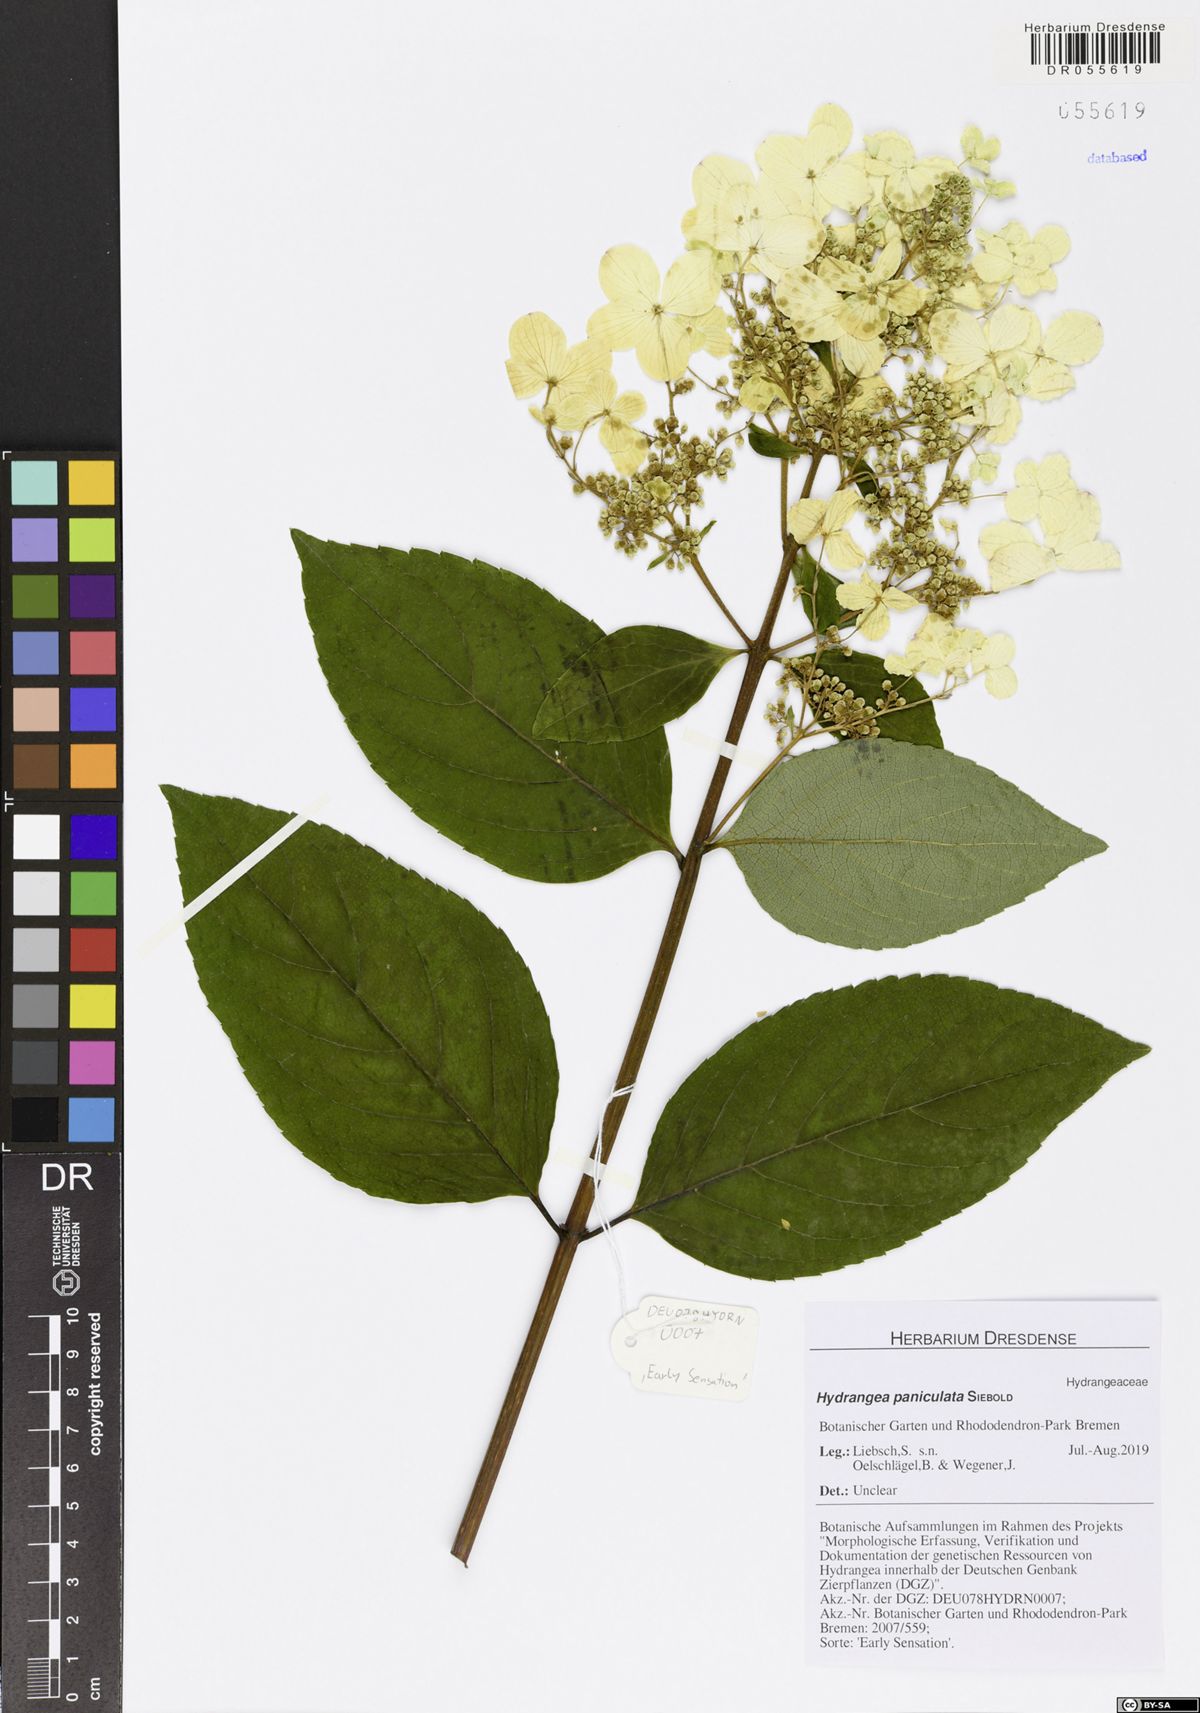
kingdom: Plantae
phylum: Tracheophyta
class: Magnoliopsida
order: Cornales
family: Hydrangeaceae
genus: Hydrangea
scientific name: Hydrangea paniculata
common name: Panicled hydrangea
